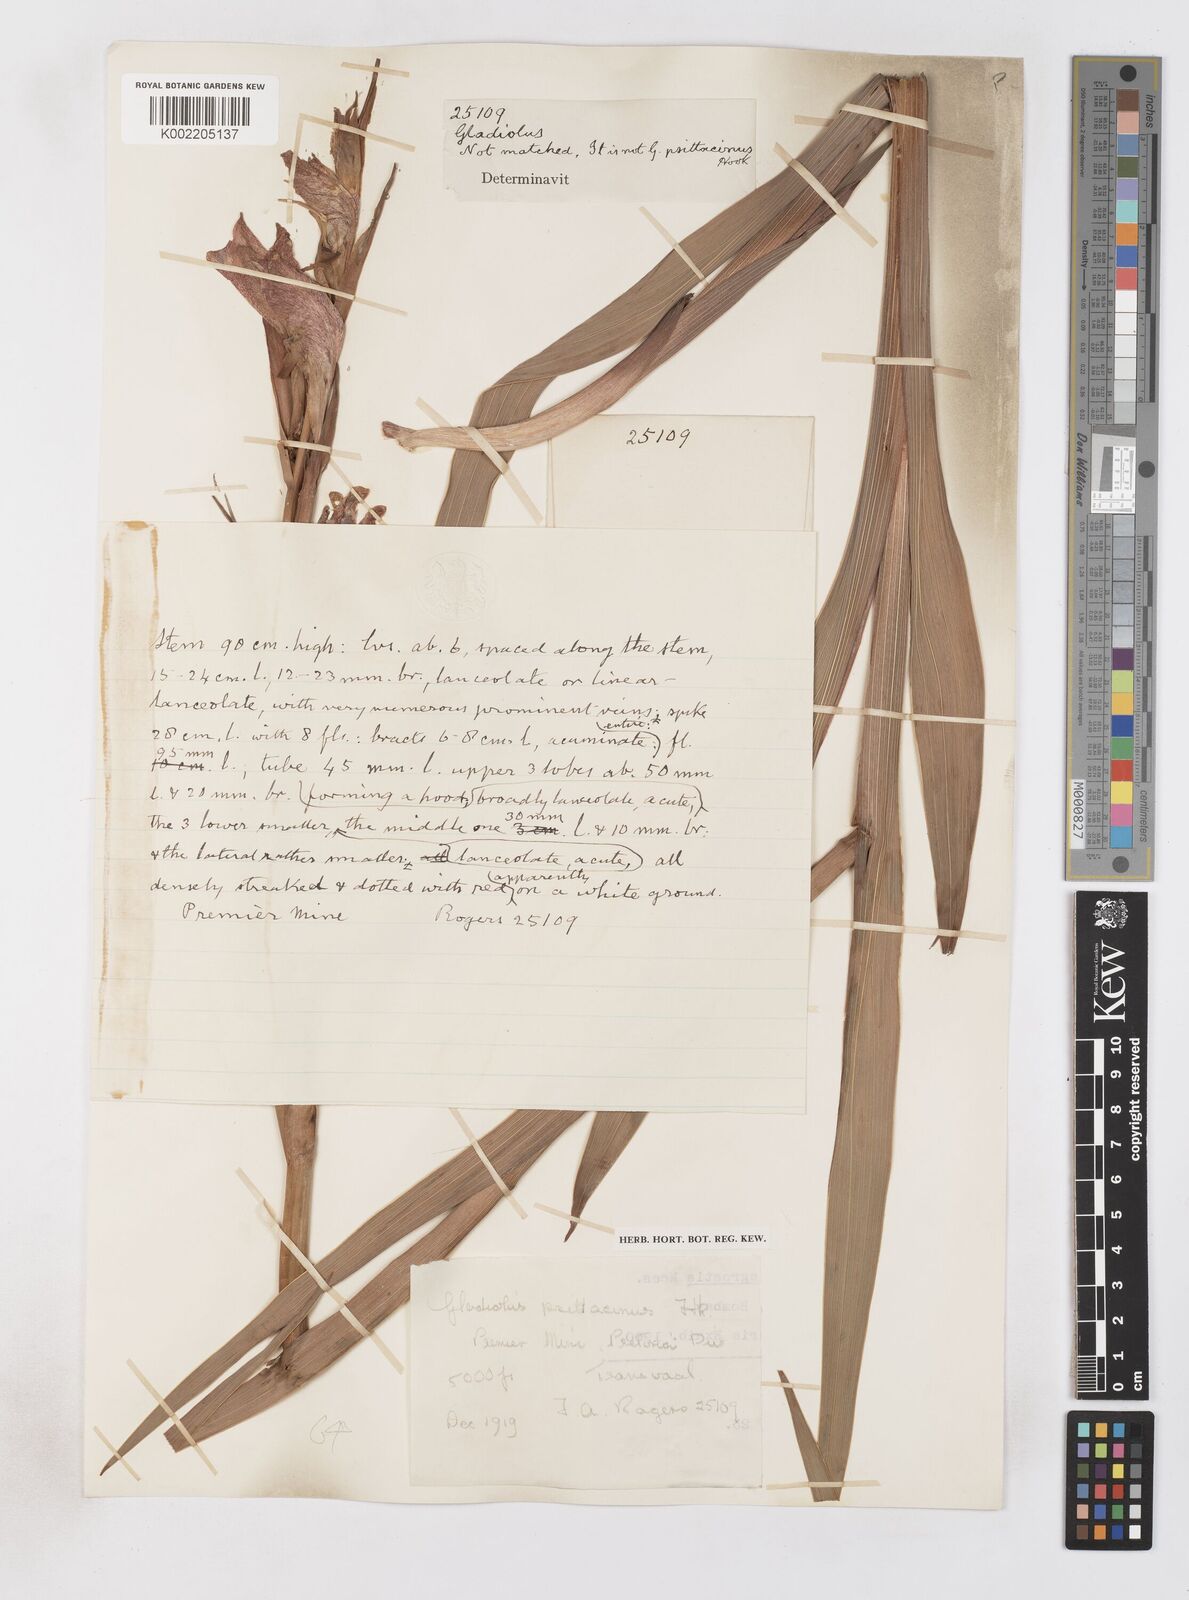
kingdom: Plantae
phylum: Tracheophyta
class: Liliopsida
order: Asparagales
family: Iridaceae
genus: Gladiolus
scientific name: Gladiolus dalenii
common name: Cornflag
